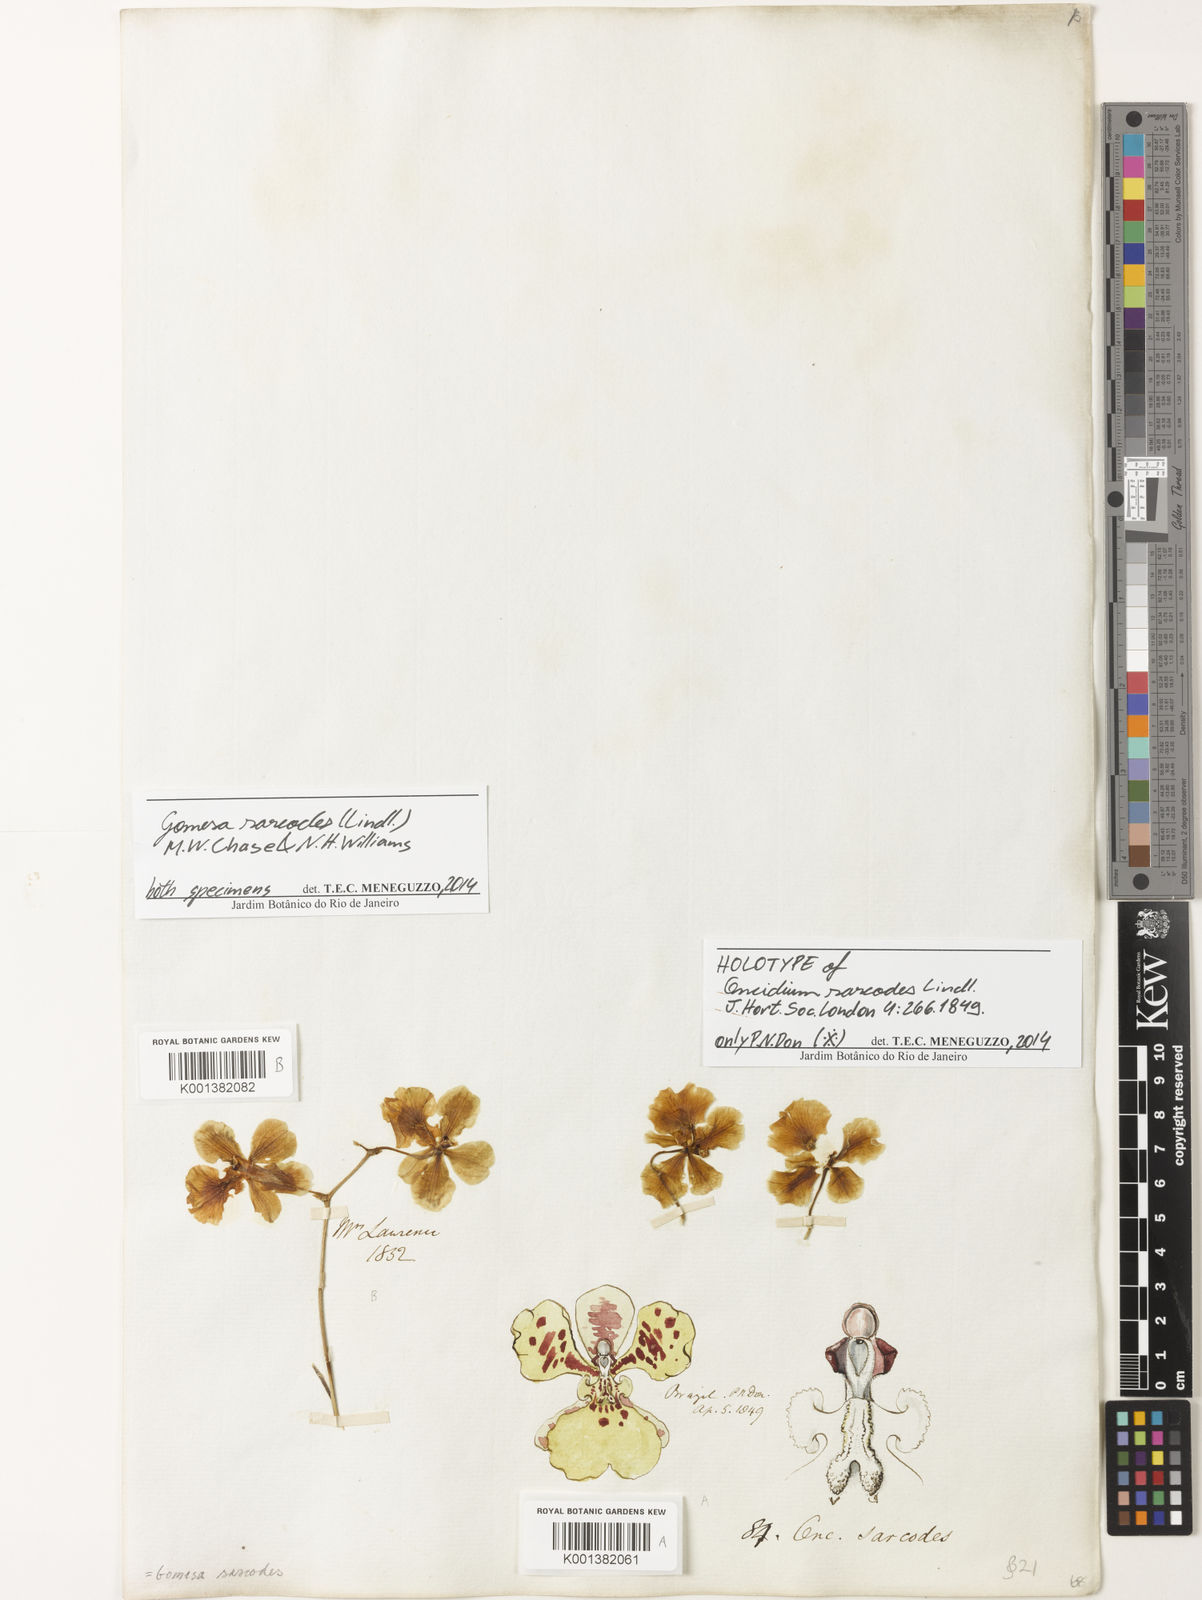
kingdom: Plantae
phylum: Tracheophyta
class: Liliopsida
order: Asparagales
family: Orchidaceae
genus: Gomesa
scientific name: Gomesa sarcodes
